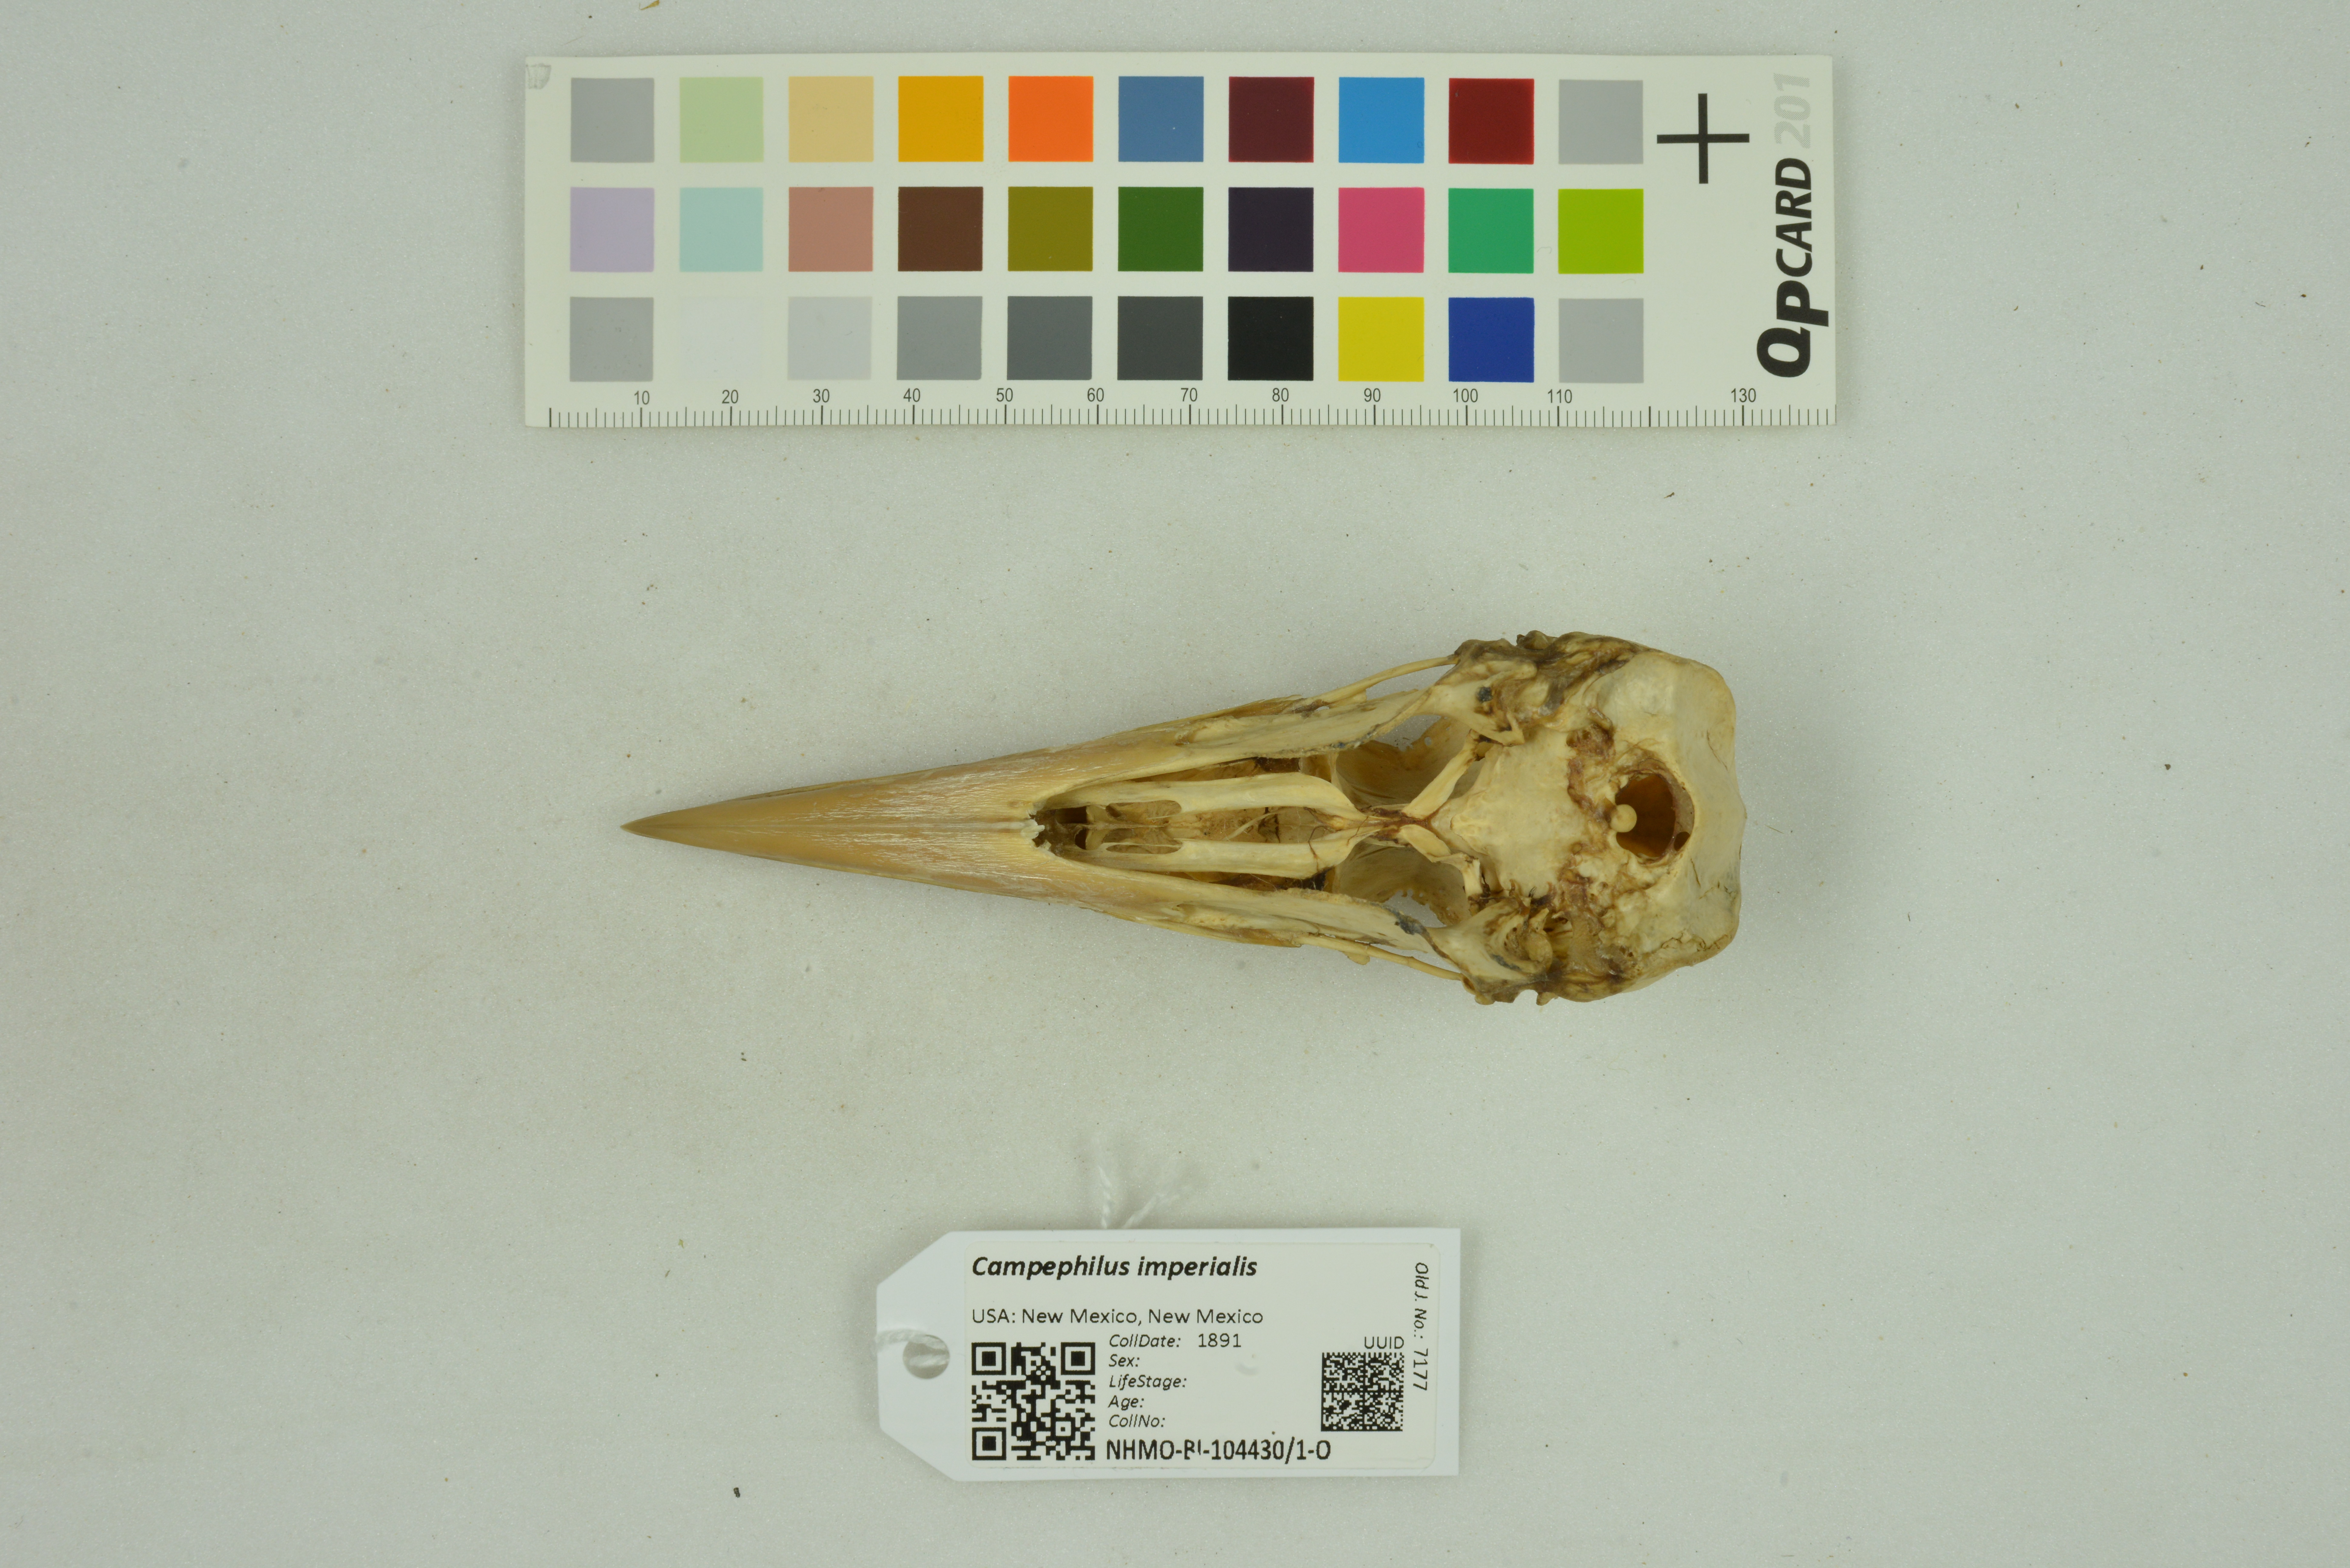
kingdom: Animalia
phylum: Chordata
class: Aves
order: Piciformes
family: Picidae
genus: Campephilus
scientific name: Campephilus imperialis
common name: Imperial woodpecker
